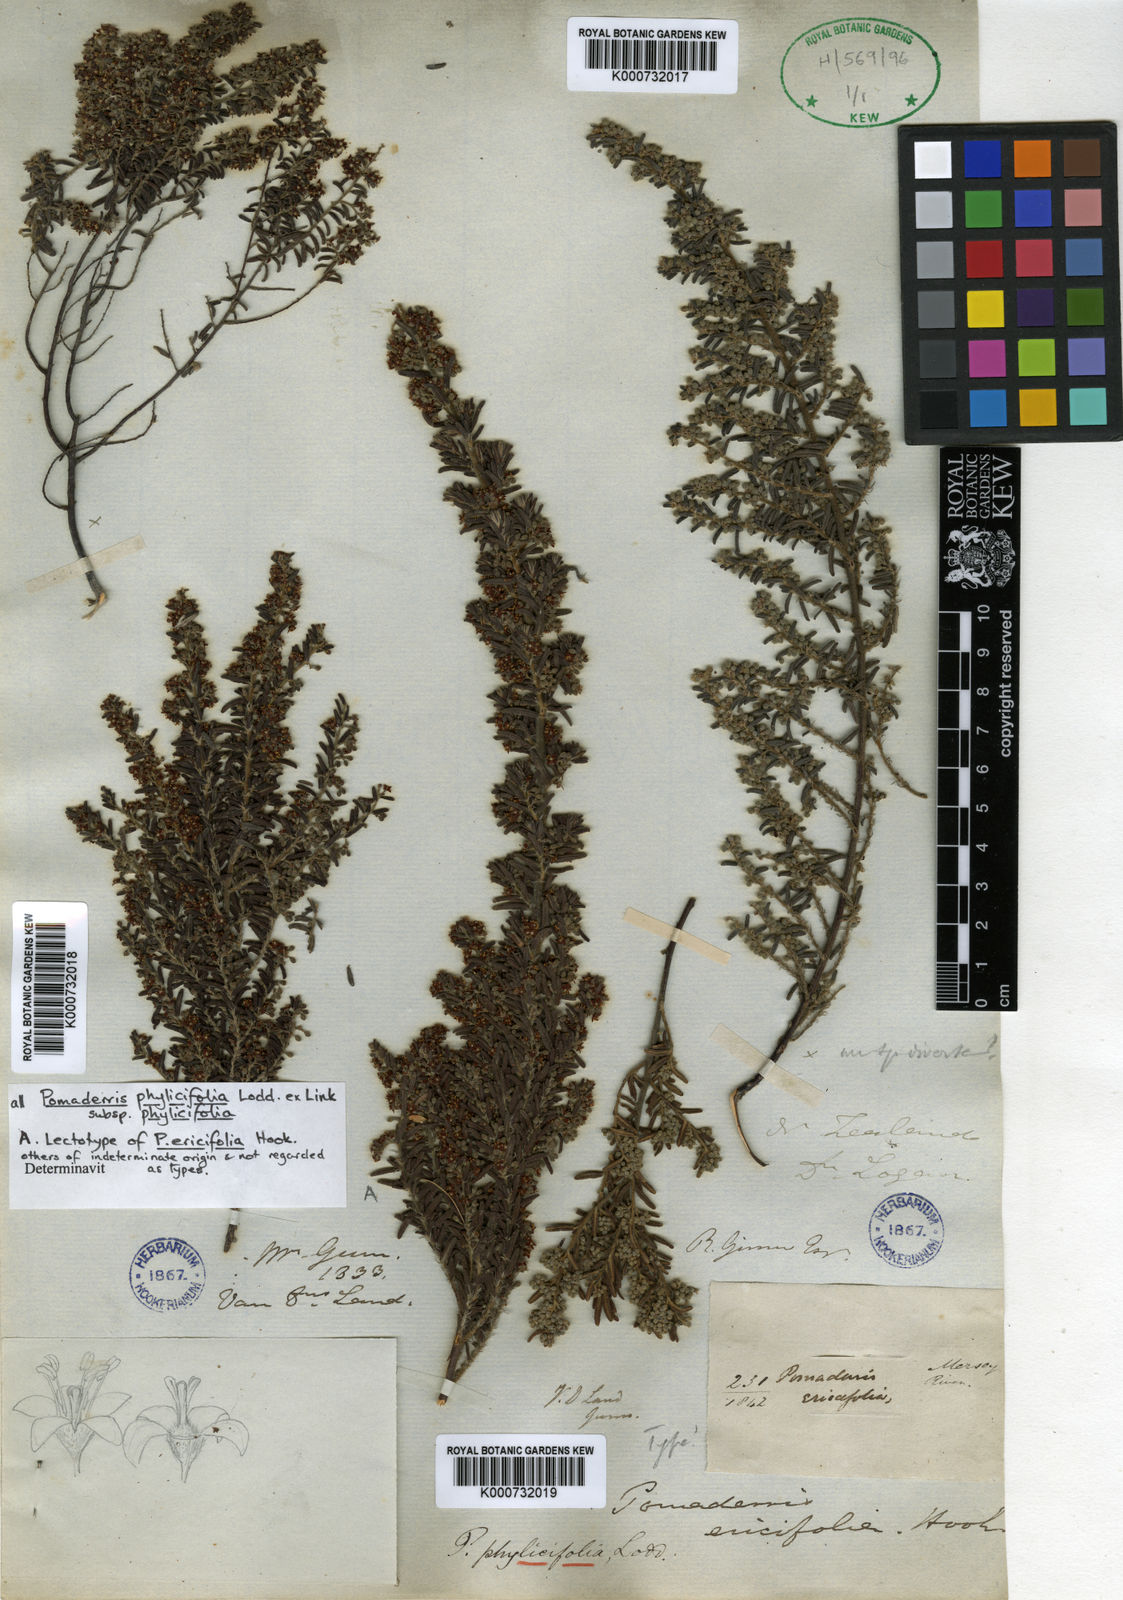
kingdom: Plantae
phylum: Tracheophyta
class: Magnoliopsida
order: Rosales
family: Rhamnaceae
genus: Pomaderris
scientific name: Pomaderris phylicifolia
